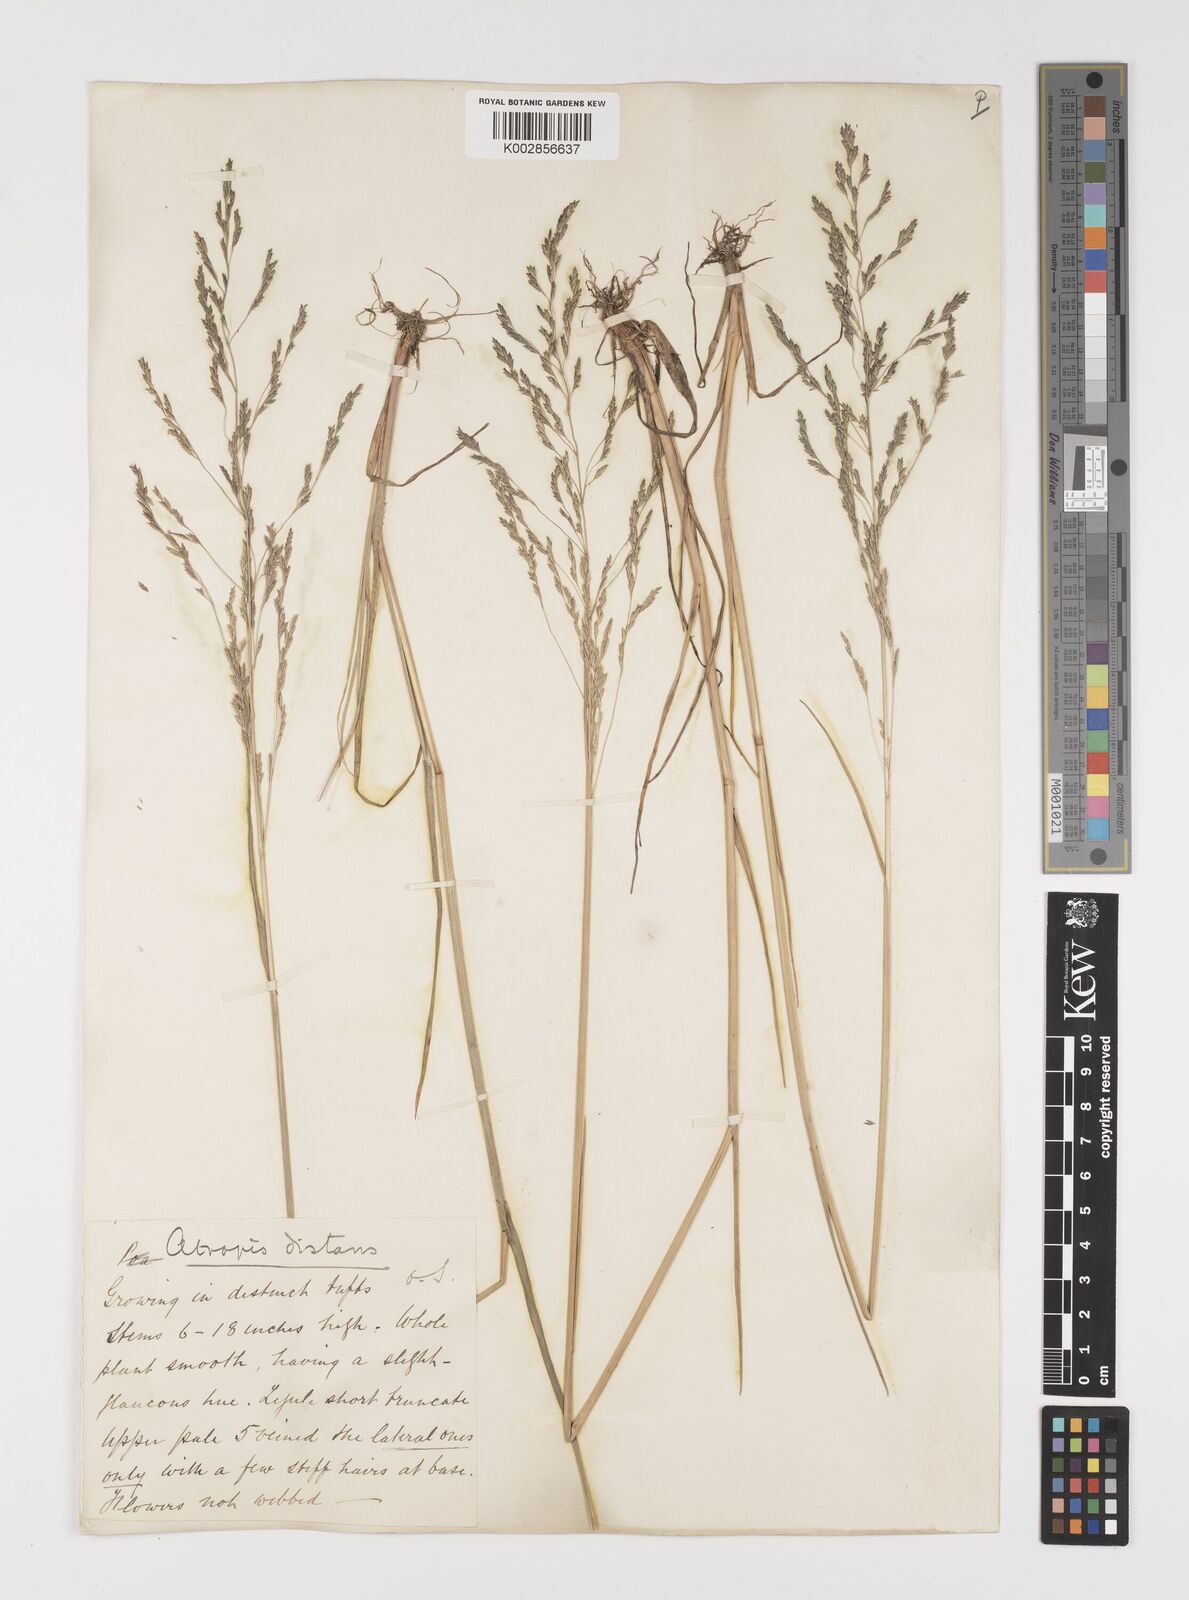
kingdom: Plantae
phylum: Tracheophyta
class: Liliopsida
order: Poales
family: Poaceae
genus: Puccinellia
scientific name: Puccinellia distans
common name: Weeping alkaligrass
